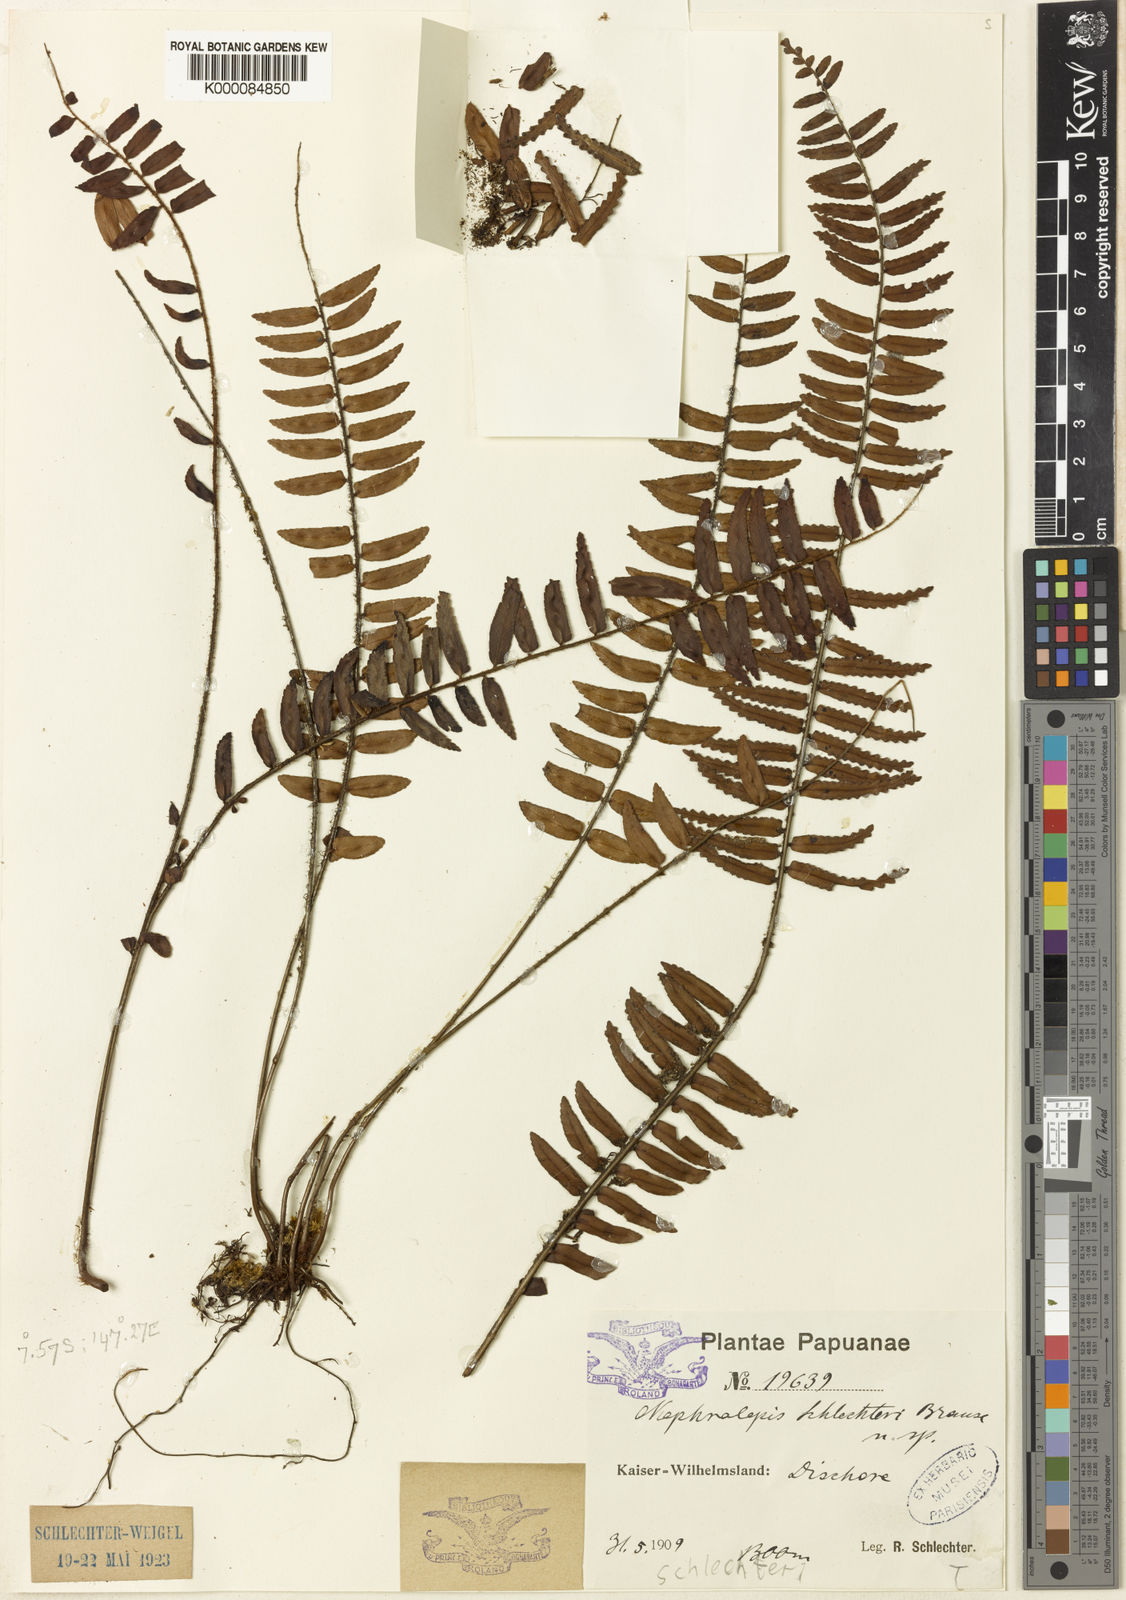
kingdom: Plantae
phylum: Tracheophyta
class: Polypodiopsida
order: Polypodiales
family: Nephrolepidaceae
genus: Nephrolepis
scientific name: Nephrolepis davalliae
